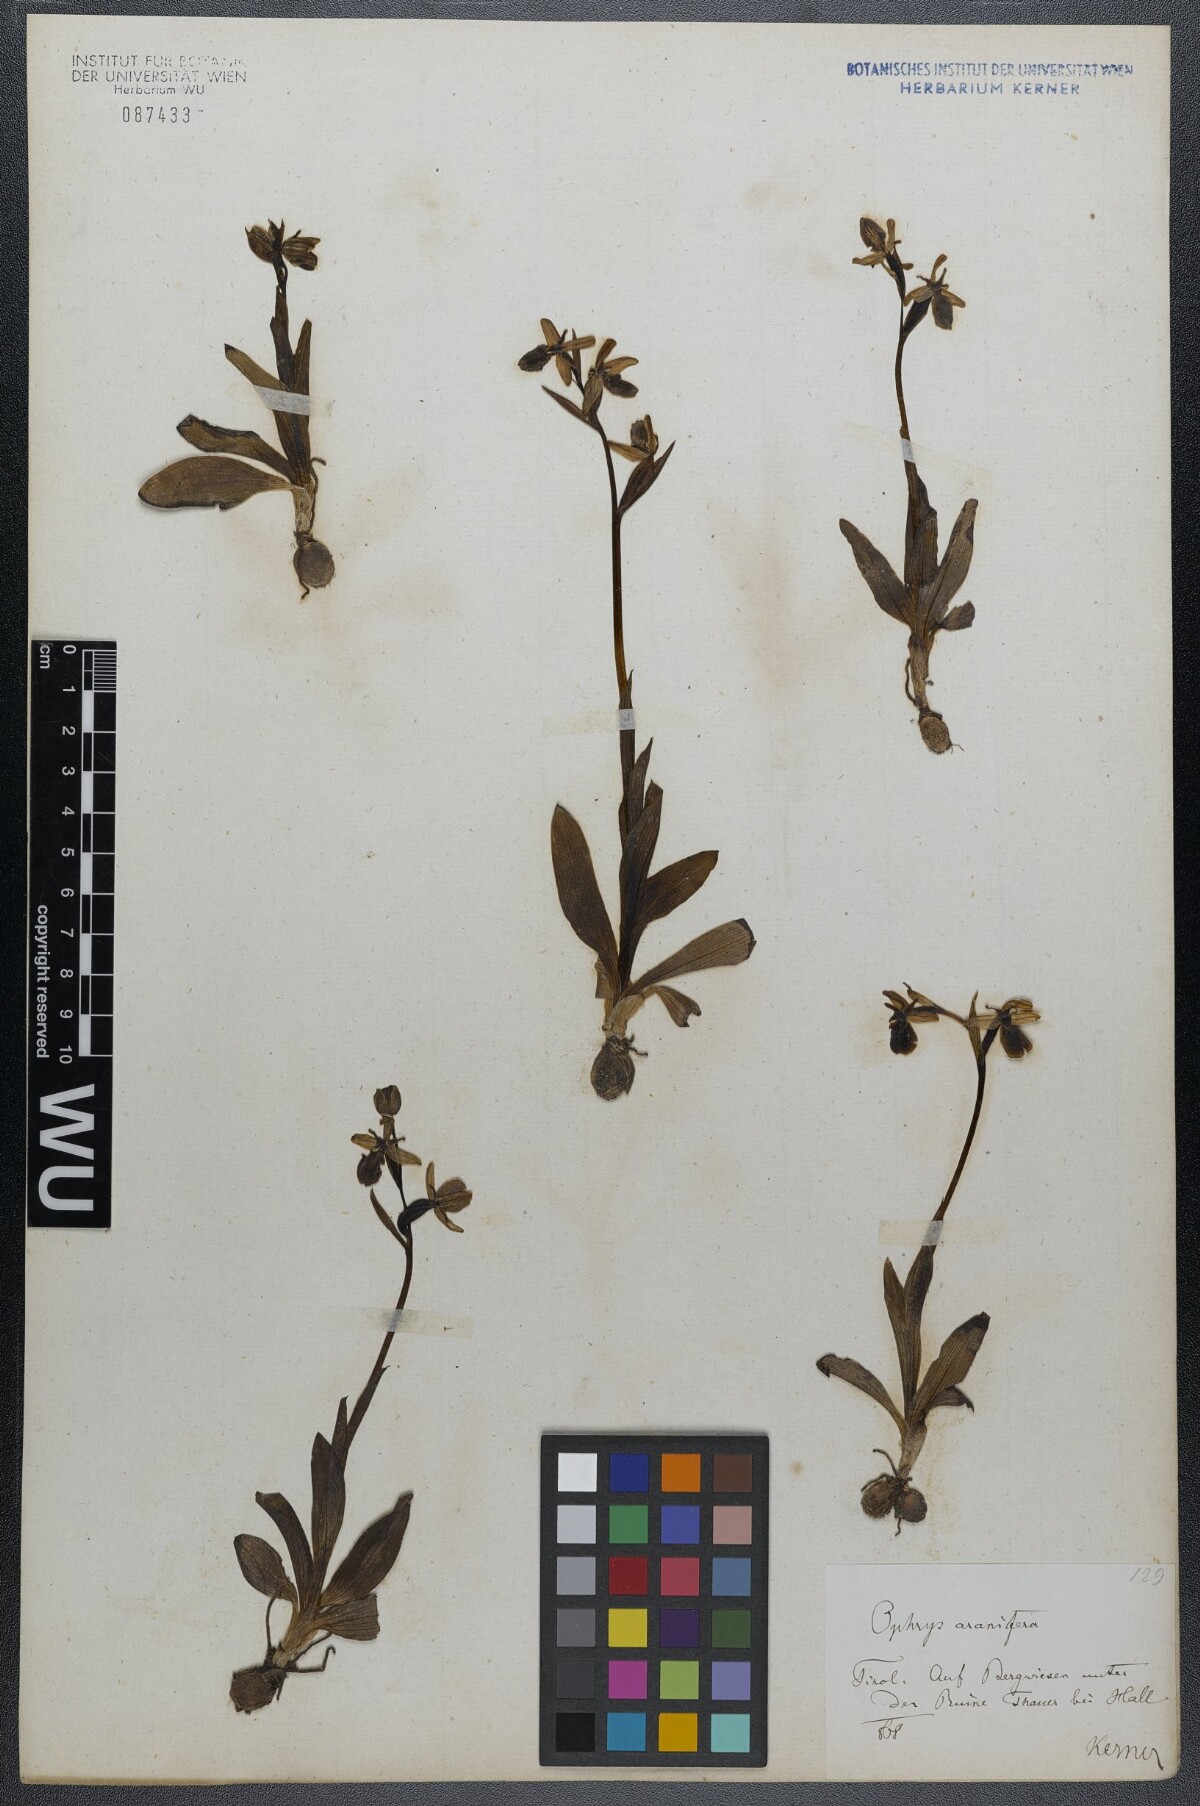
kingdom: Plantae
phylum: Tracheophyta
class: Liliopsida
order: Asparagales
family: Orchidaceae
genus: Ophrys
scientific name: Ophrys sphegodes
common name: Early spider-orchid
